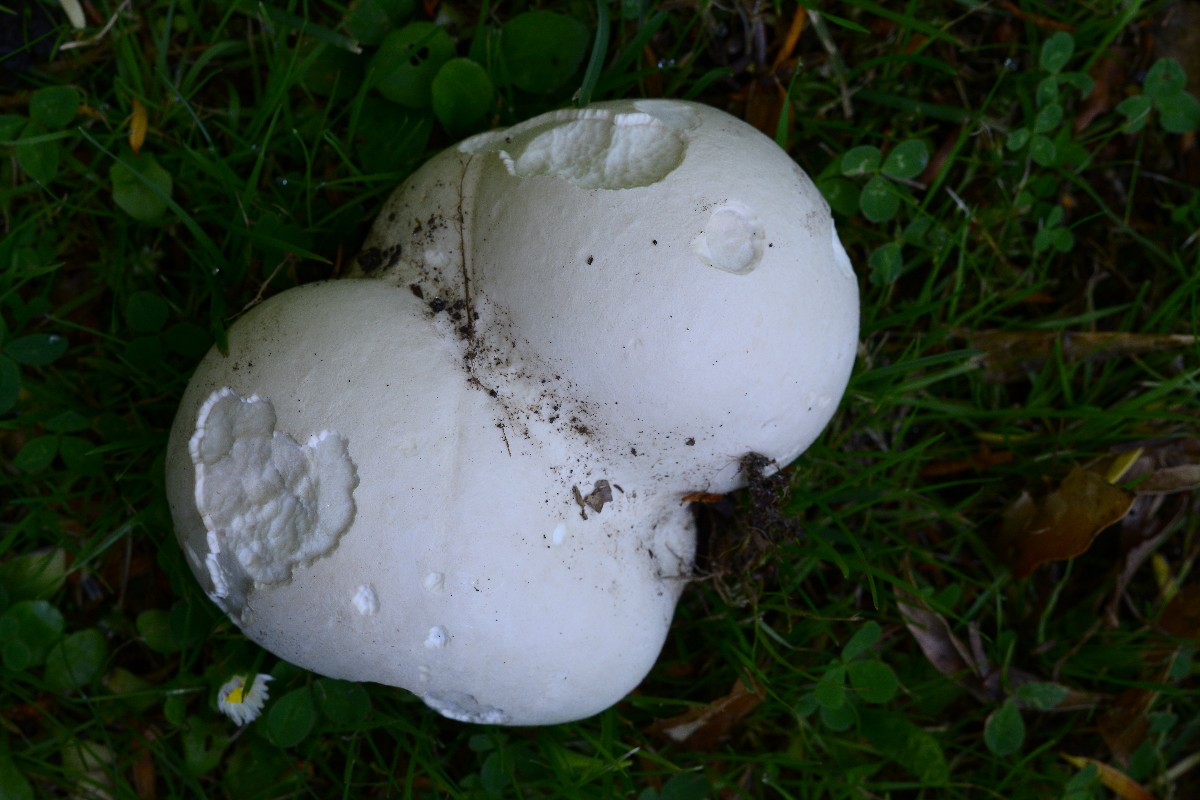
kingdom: Fungi
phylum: Basidiomycota
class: Agaricomycetes
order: Agaricales
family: Lycoperdaceae
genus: Calvatia
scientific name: Calvatia gigantea
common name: kæmpestøvbold
